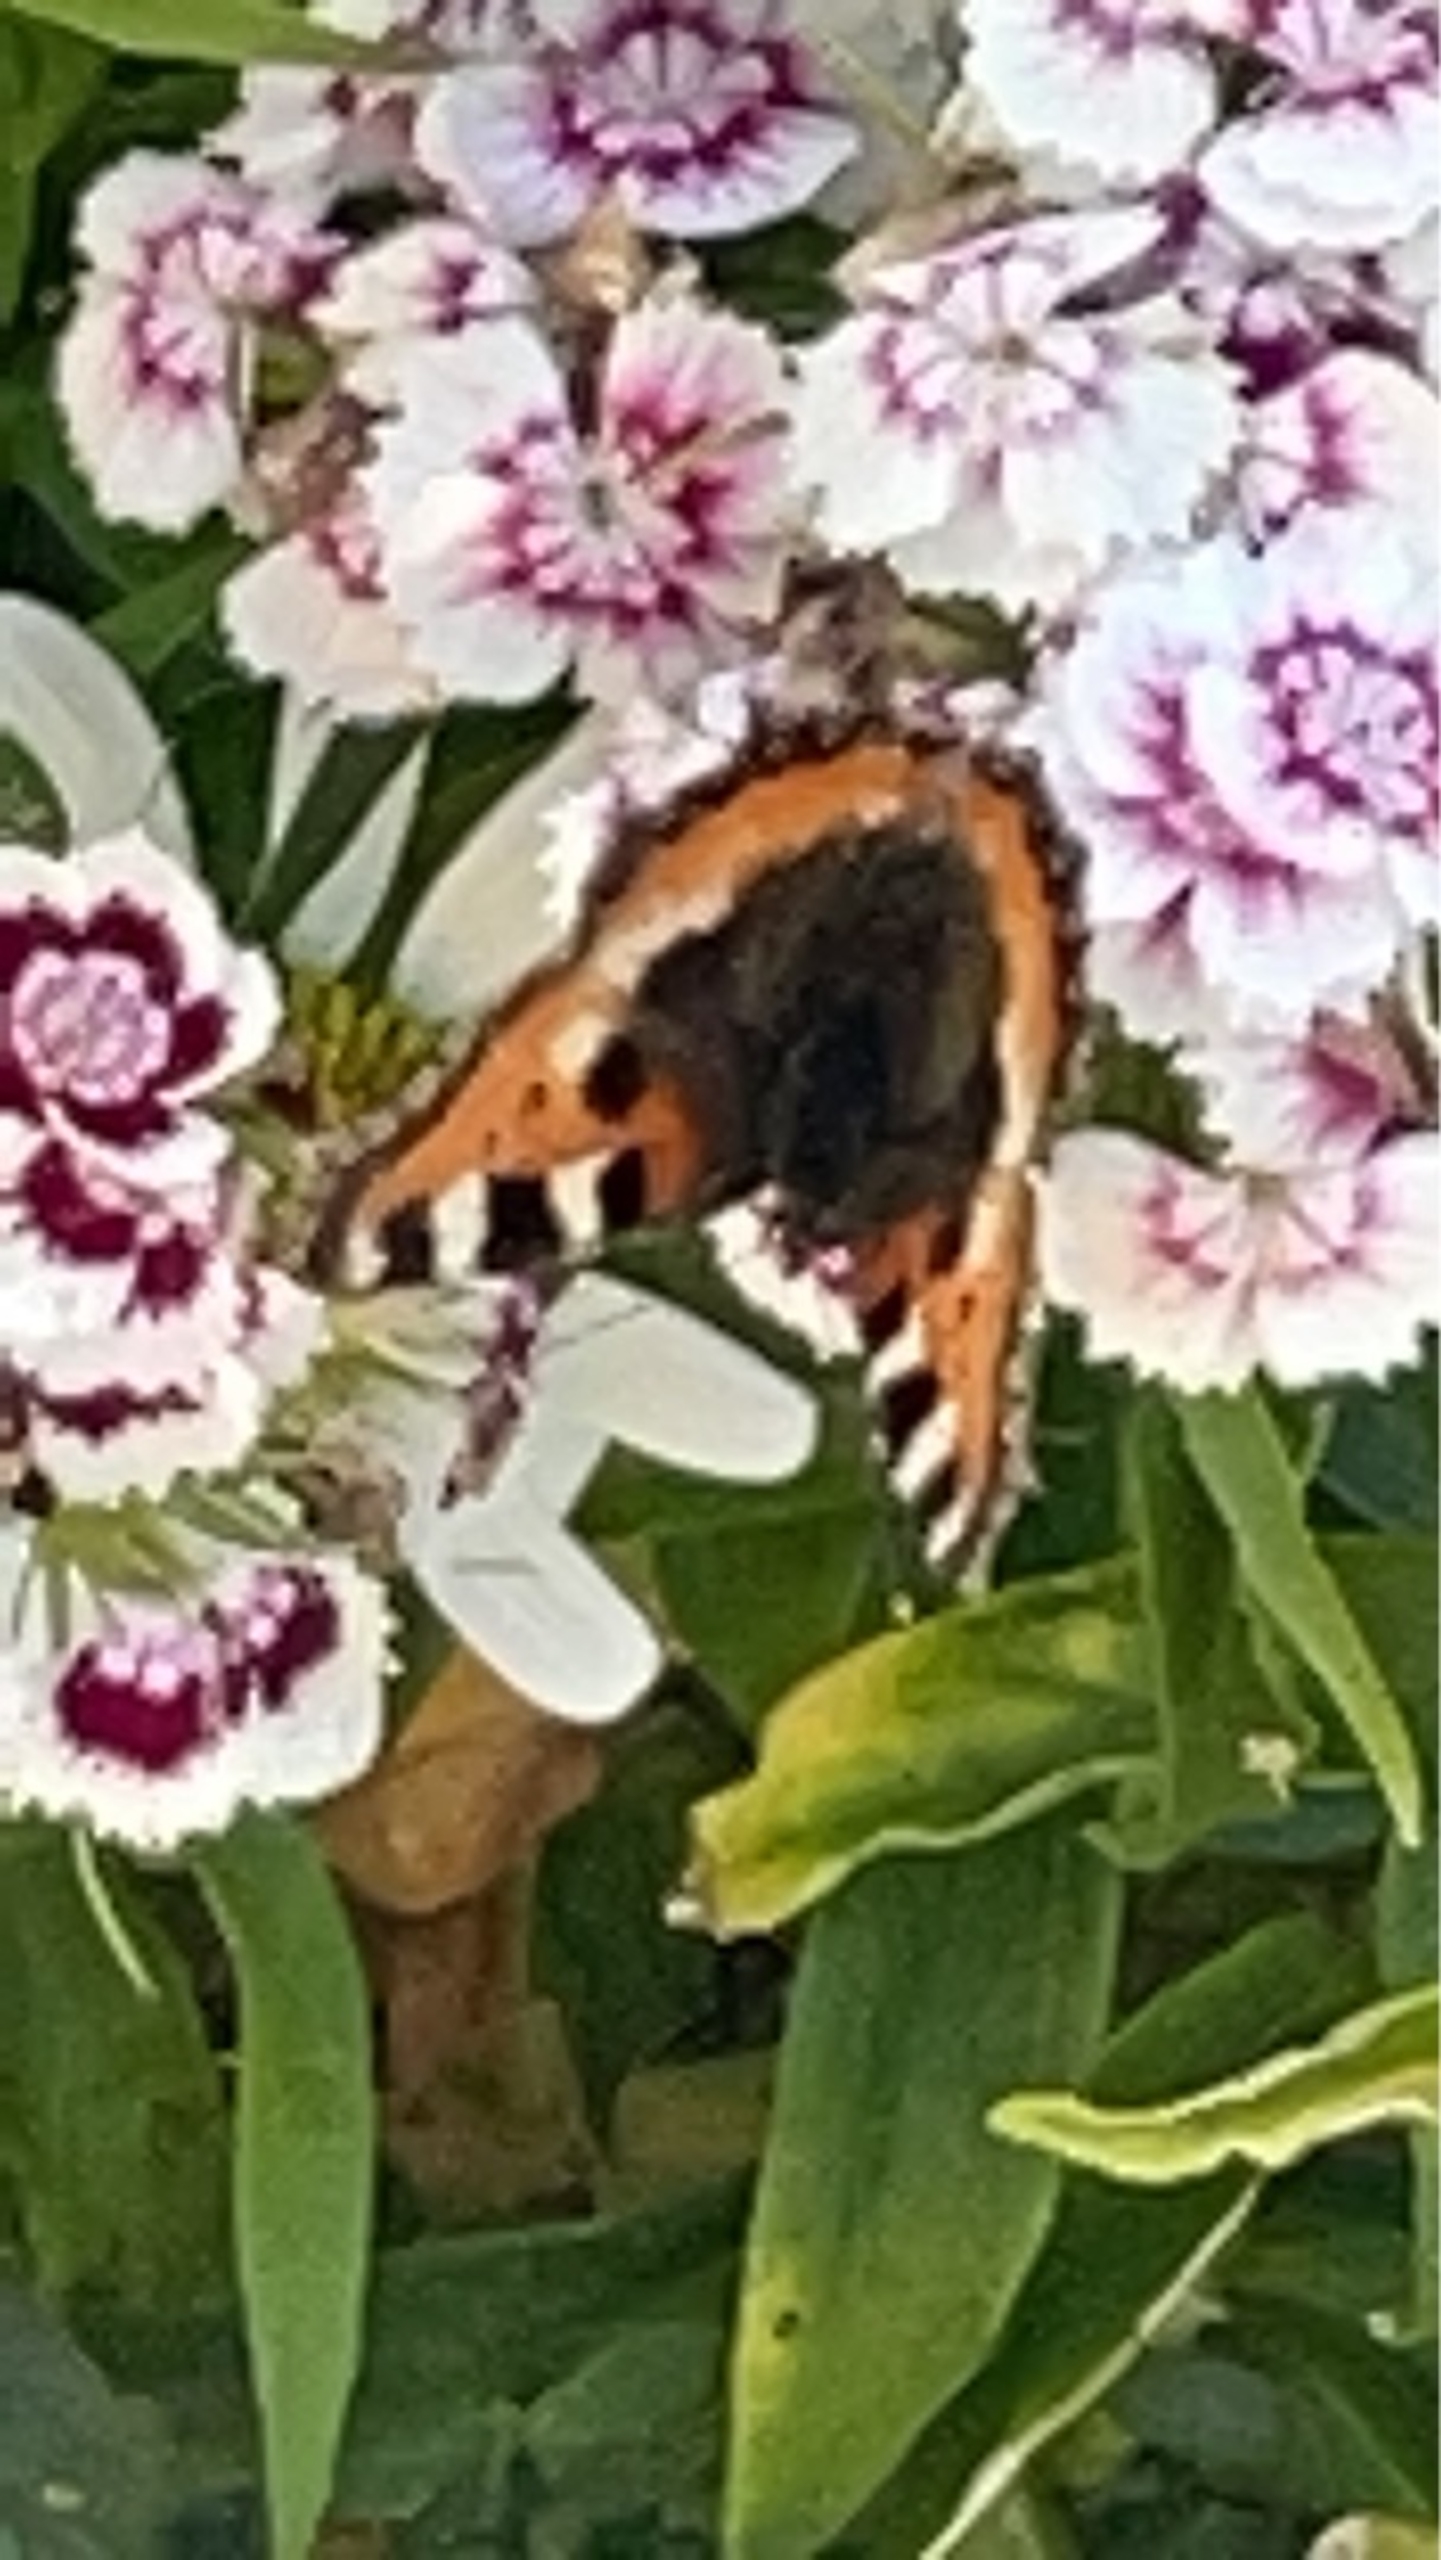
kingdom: Animalia
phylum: Arthropoda
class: Insecta
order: Lepidoptera
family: Nymphalidae
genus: Aglais
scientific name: Aglais urticae
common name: Nældens takvinge
